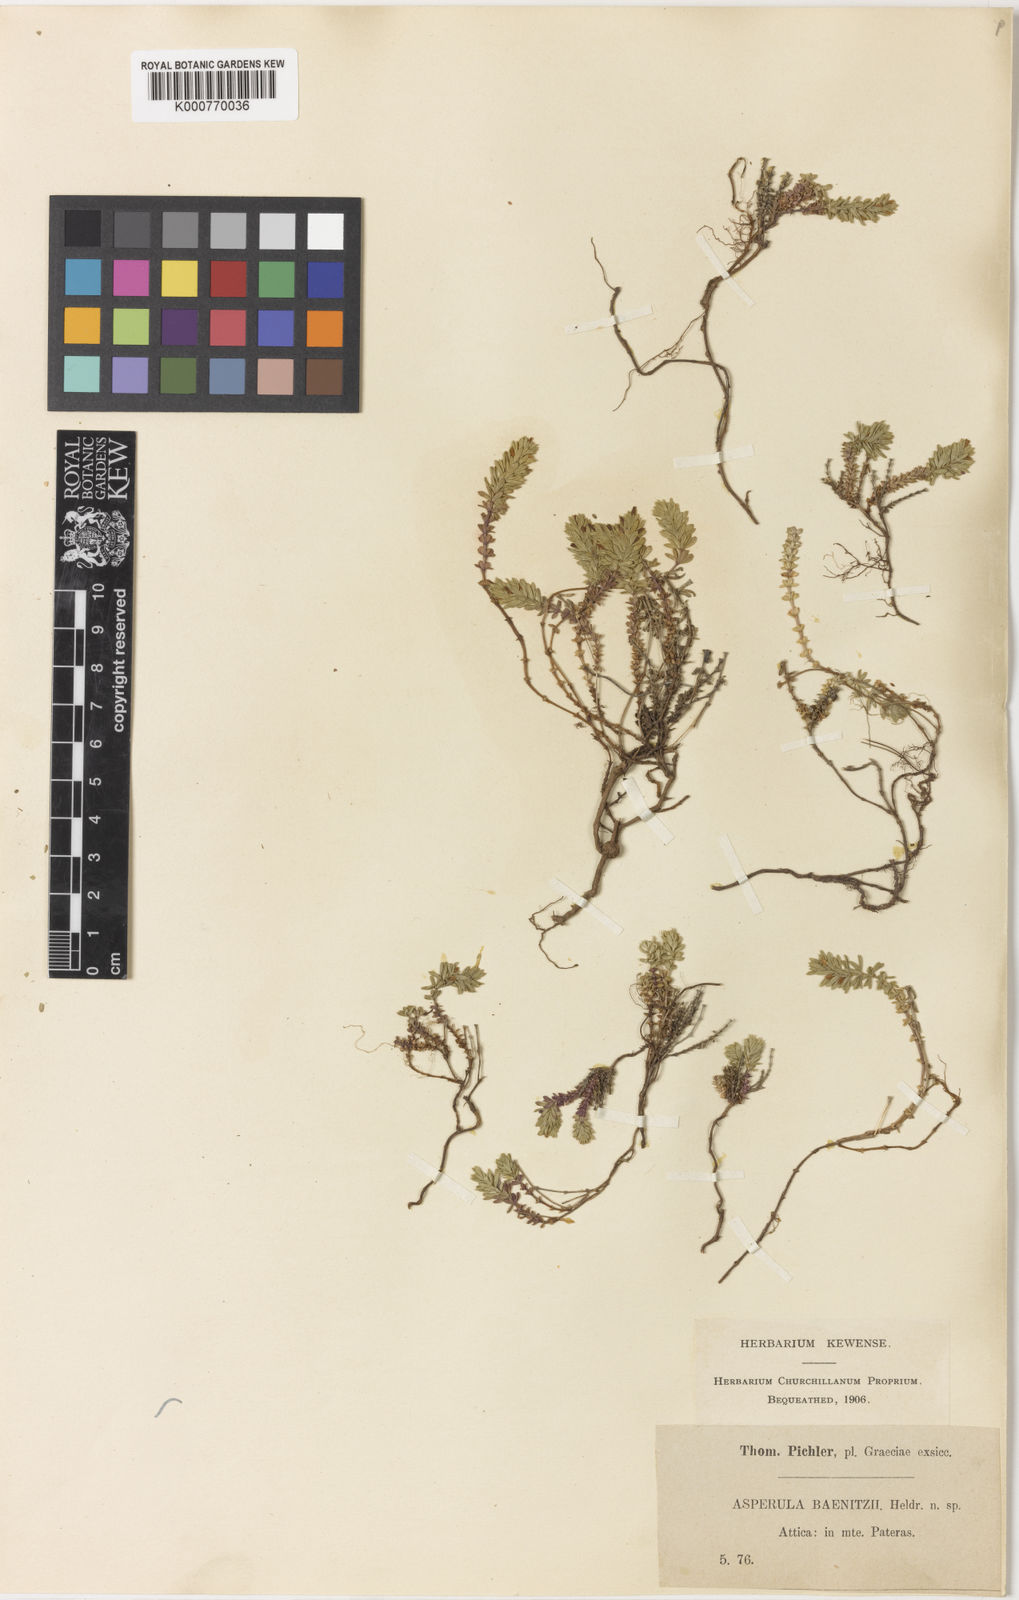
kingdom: Plantae
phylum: Tracheophyta
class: Magnoliopsida
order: Gentianales
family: Rubiaceae
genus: Thliphthisa
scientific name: Thliphthisa baenitzii
